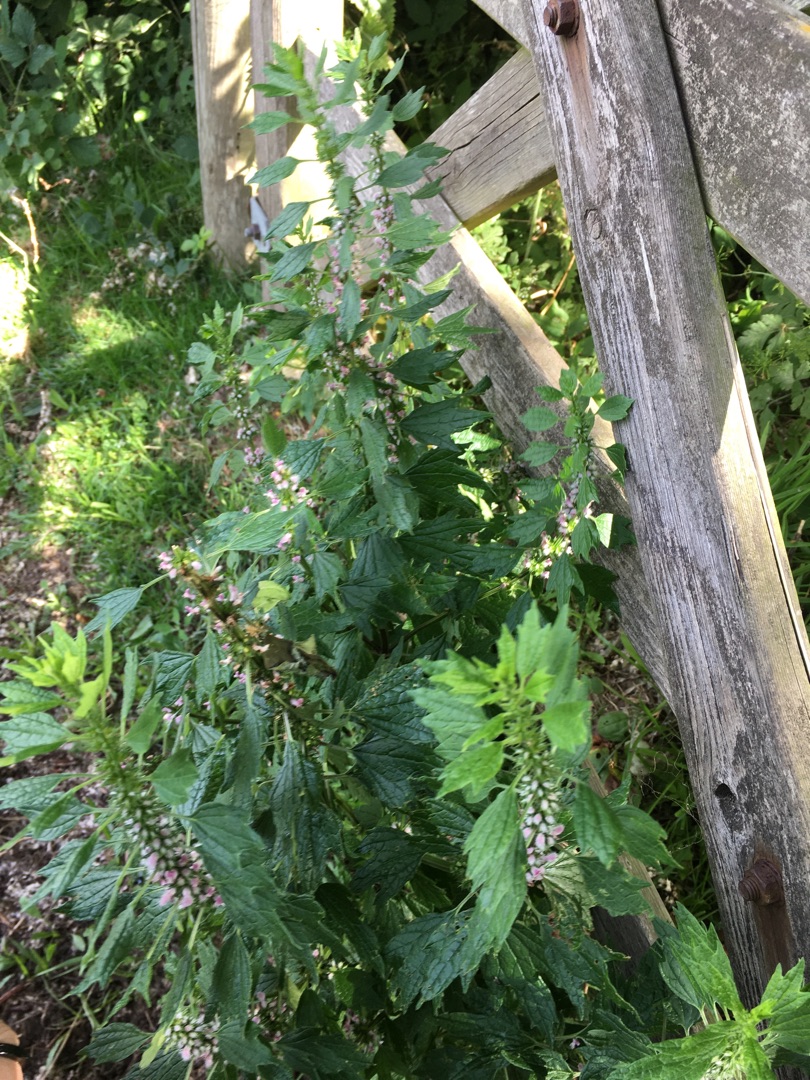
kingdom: Plantae
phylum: Tracheophyta
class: Magnoliopsida
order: Lamiales
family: Lamiaceae
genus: Leonurus
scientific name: Leonurus cardiaca
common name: Hjertespand
